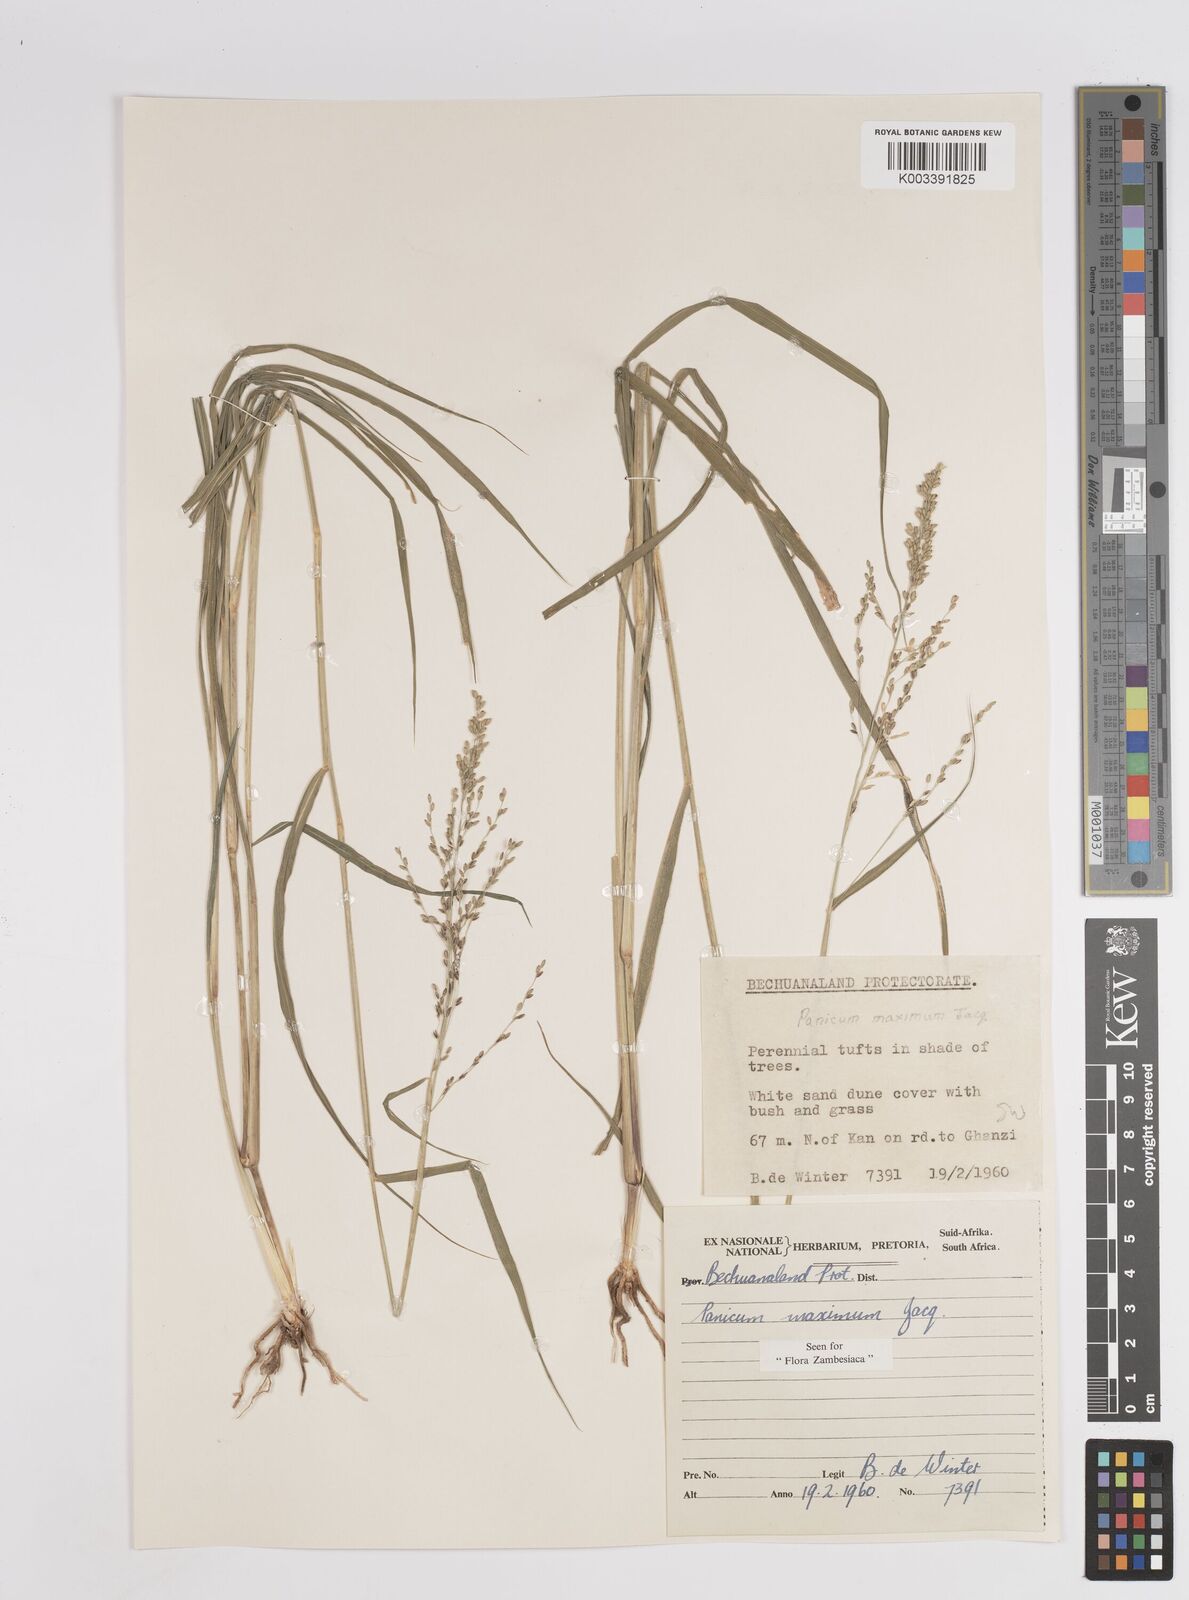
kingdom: Plantae
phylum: Tracheophyta
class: Liliopsida
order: Poales
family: Poaceae
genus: Megathyrsus
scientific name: Megathyrsus maximus
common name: Guineagrass
